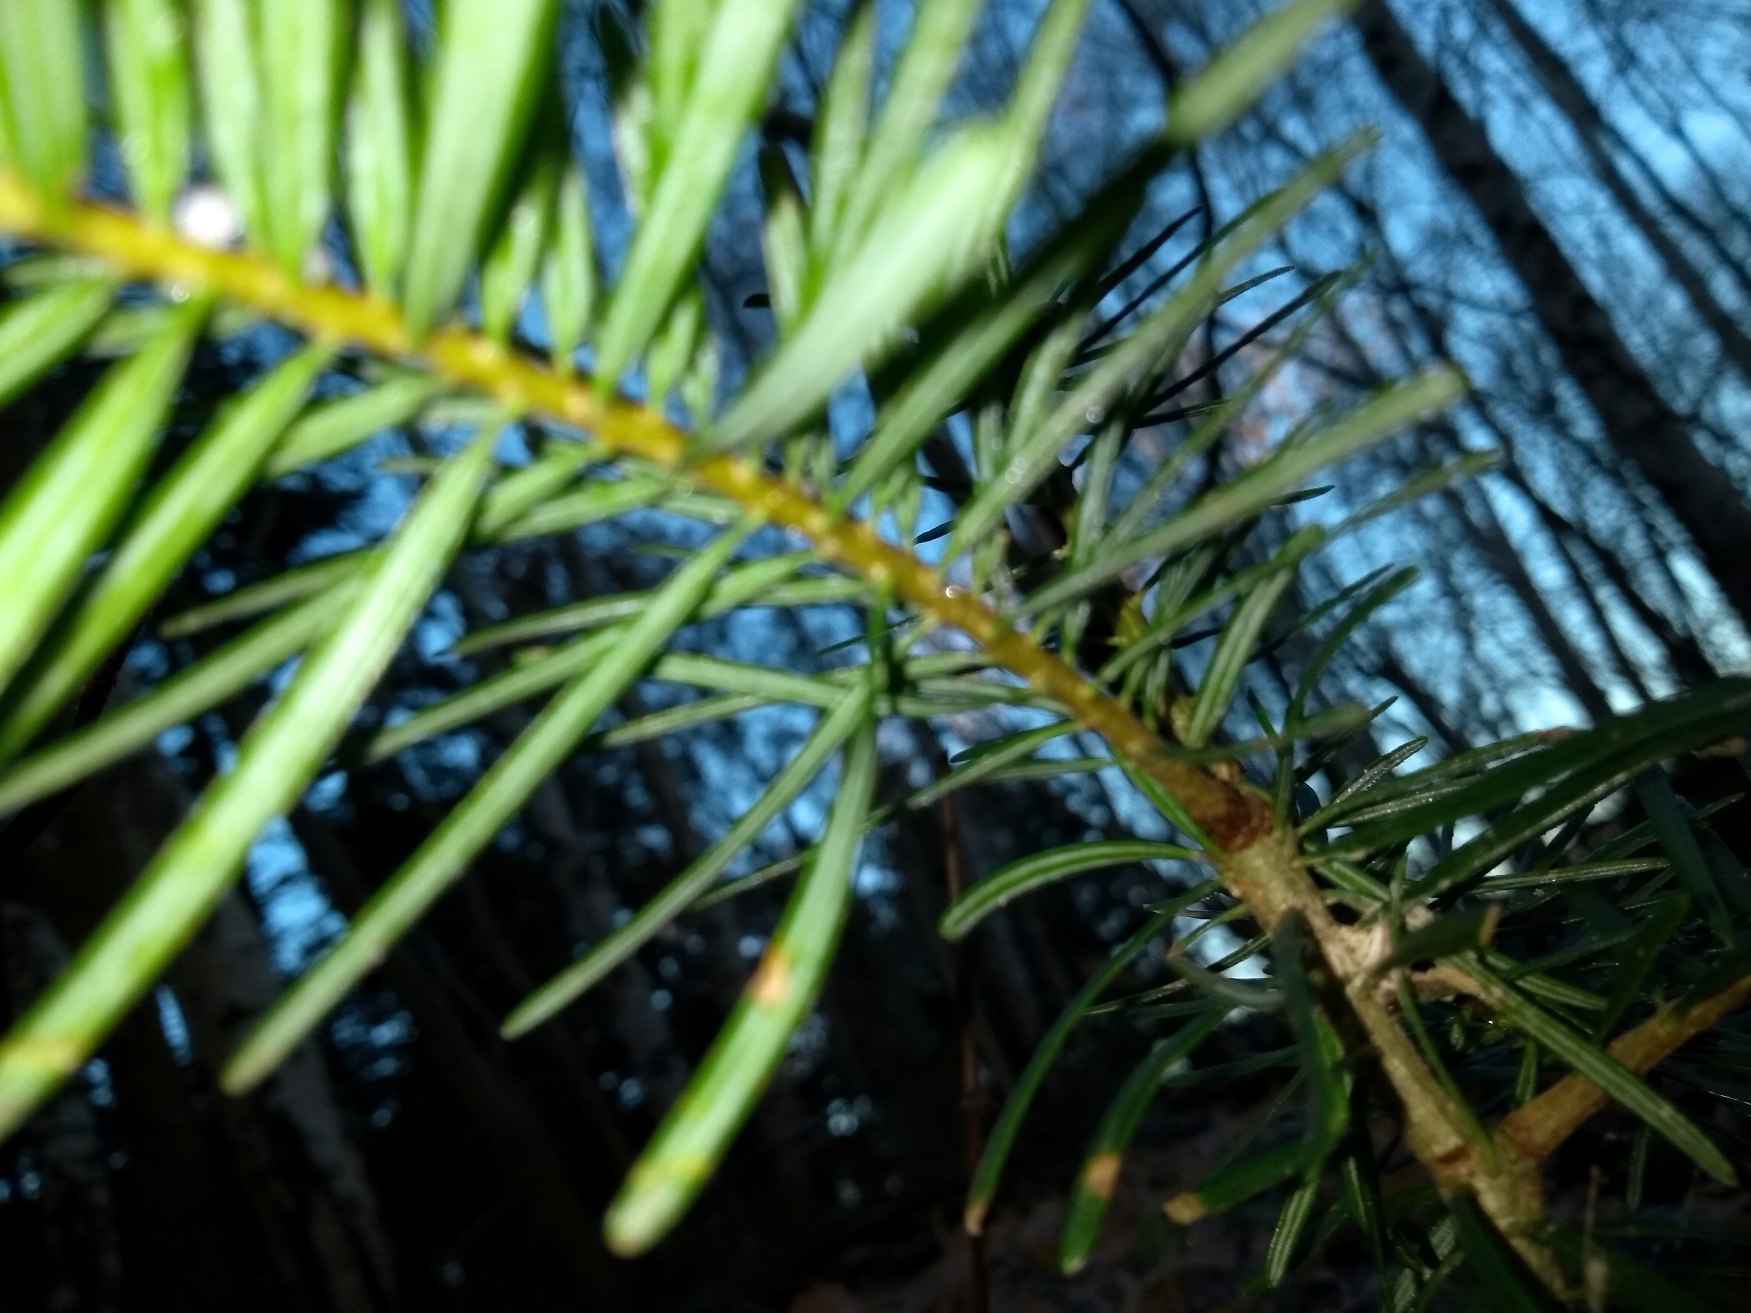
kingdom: Plantae
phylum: Tracheophyta
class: Pinopsida
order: Pinales
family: Pinaceae
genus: Abies
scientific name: Abies grandis
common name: Kæmpegran
